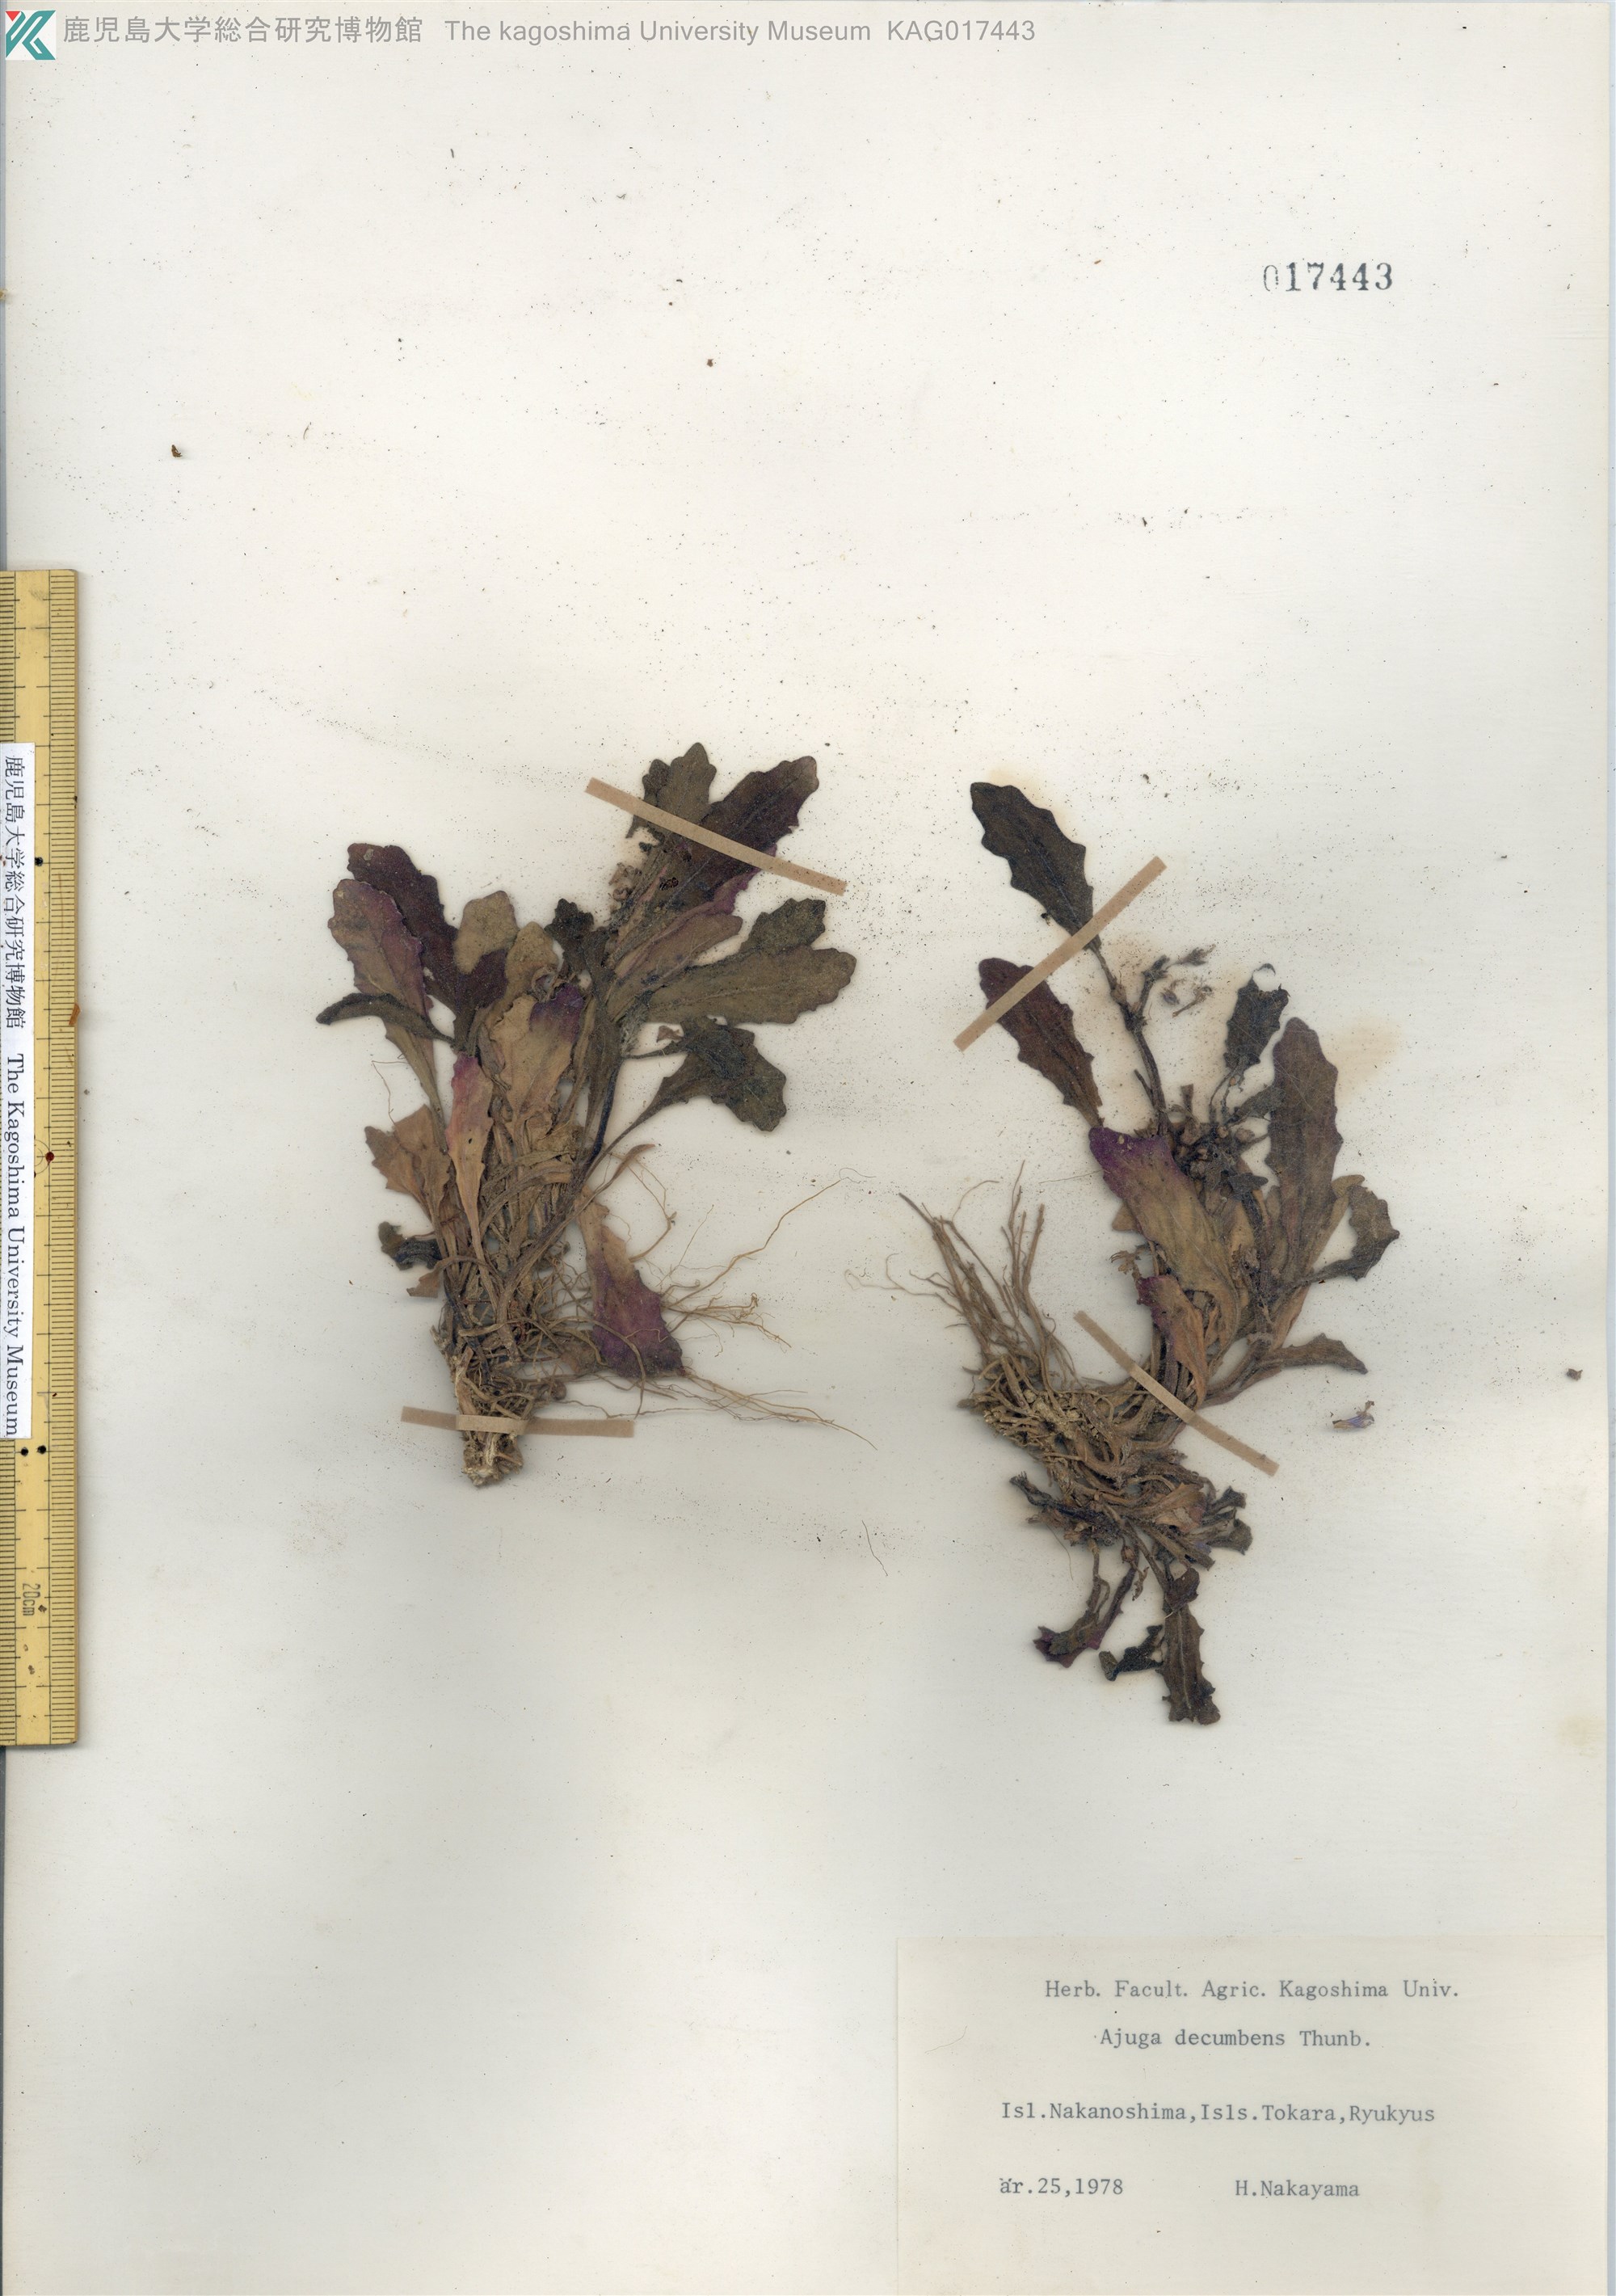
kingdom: Plantae
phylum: Tracheophyta
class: Magnoliopsida
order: Lamiales
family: Lamiaceae
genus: Ajuga
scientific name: Ajuga decumbens
